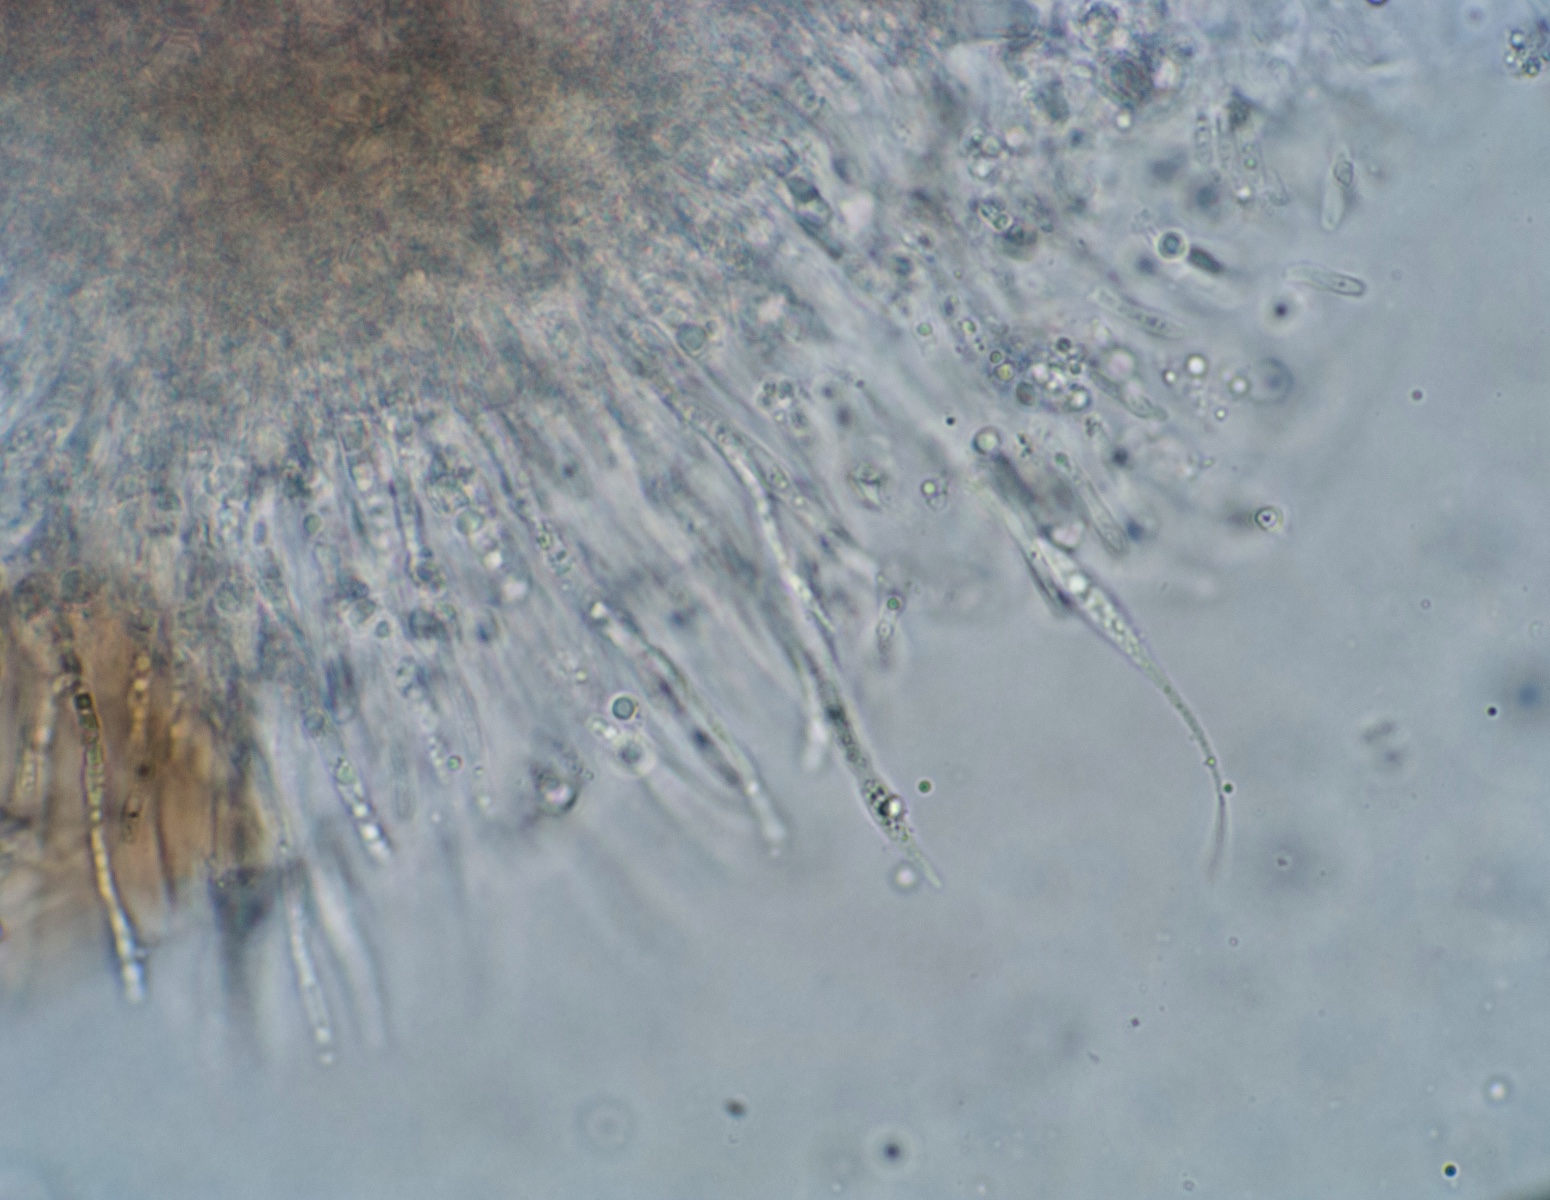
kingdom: Fungi
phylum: Ascomycota
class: Sordariomycetes
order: Amphisphaeriales
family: Amphisphaeriaceae
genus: Ceriospora
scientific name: Ceriospora polygonacearum
